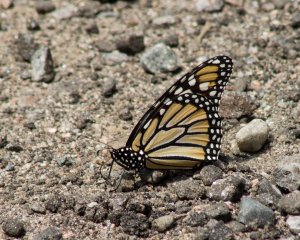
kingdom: Animalia
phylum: Arthropoda
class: Insecta
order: Lepidoptera
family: Nymphalidae
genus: Danaus
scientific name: Danaus plexippus
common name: Monarch
